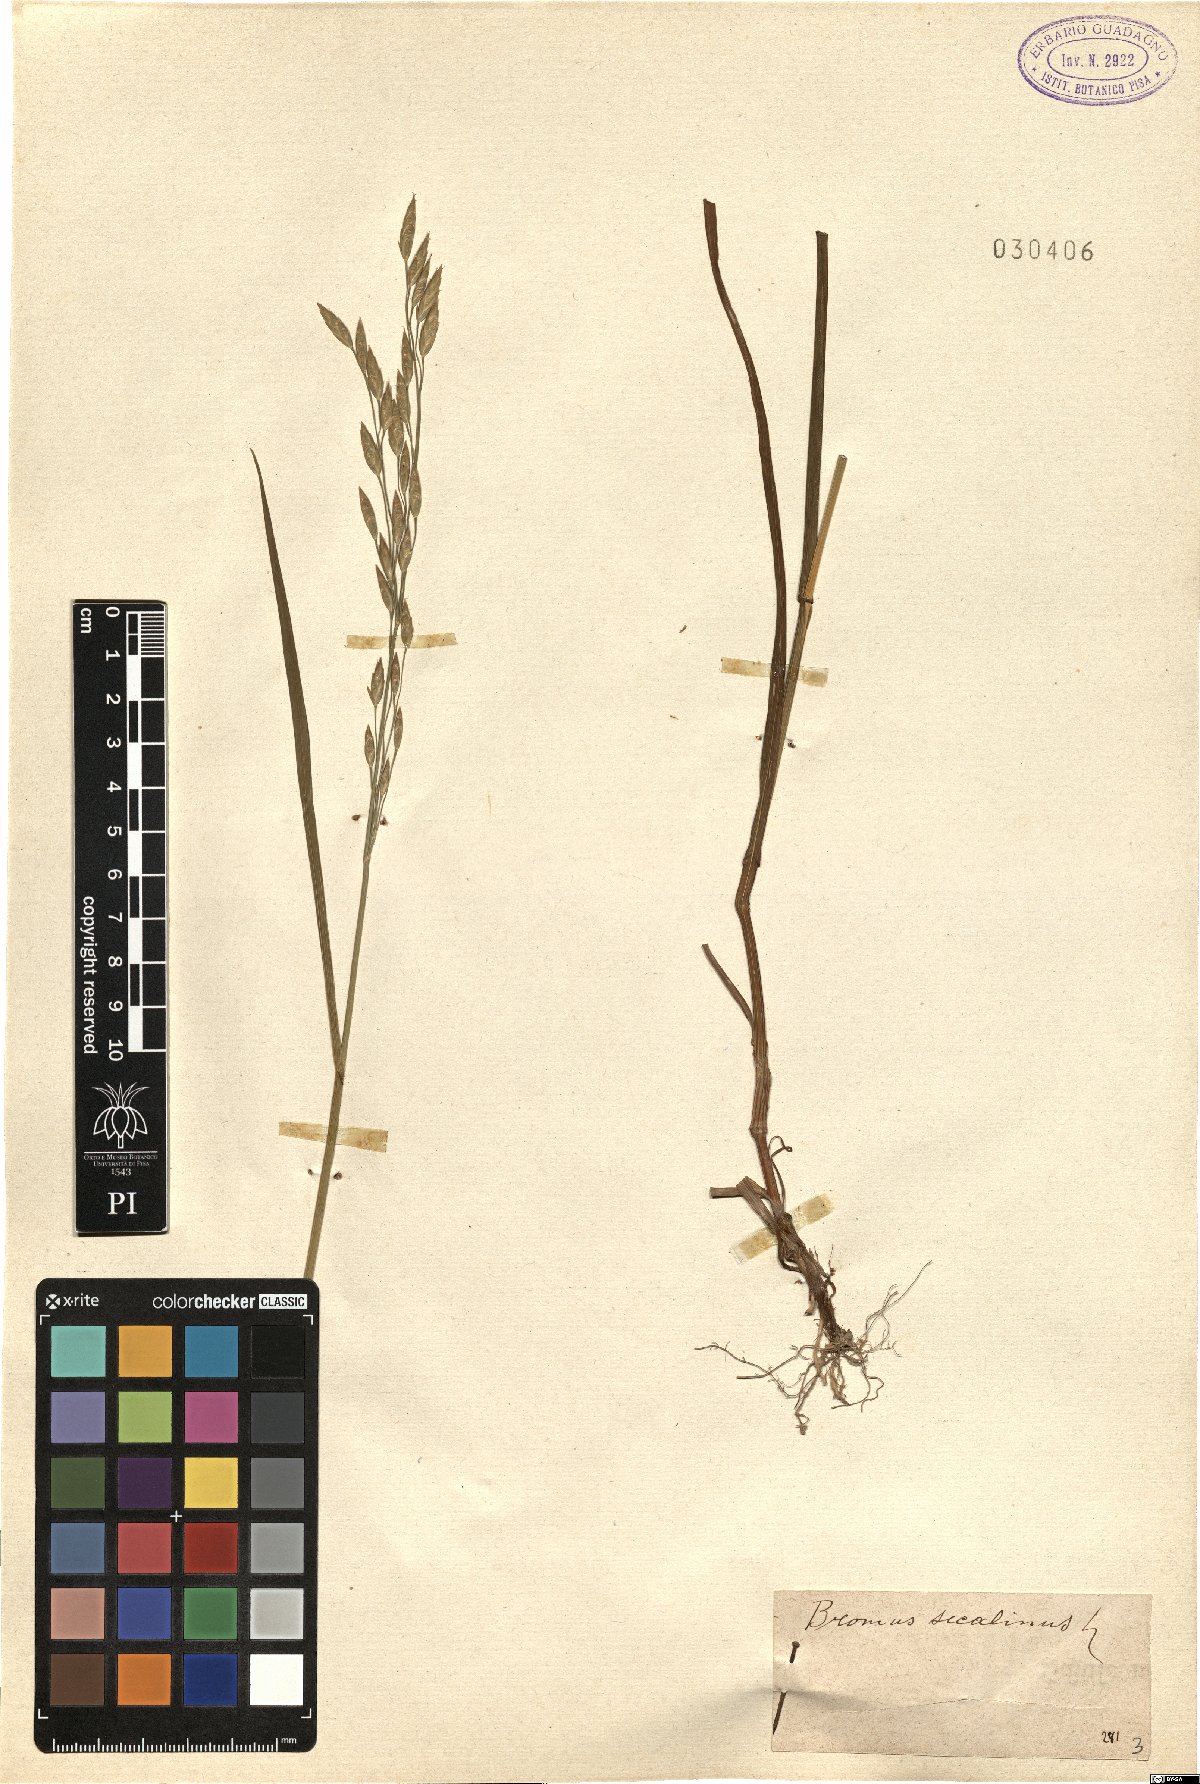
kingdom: Plantae
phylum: Tracheophyta
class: Liliopsida
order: Poales
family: Poaceae
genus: Bromus
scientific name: Bromus secalinus
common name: Rye brome
